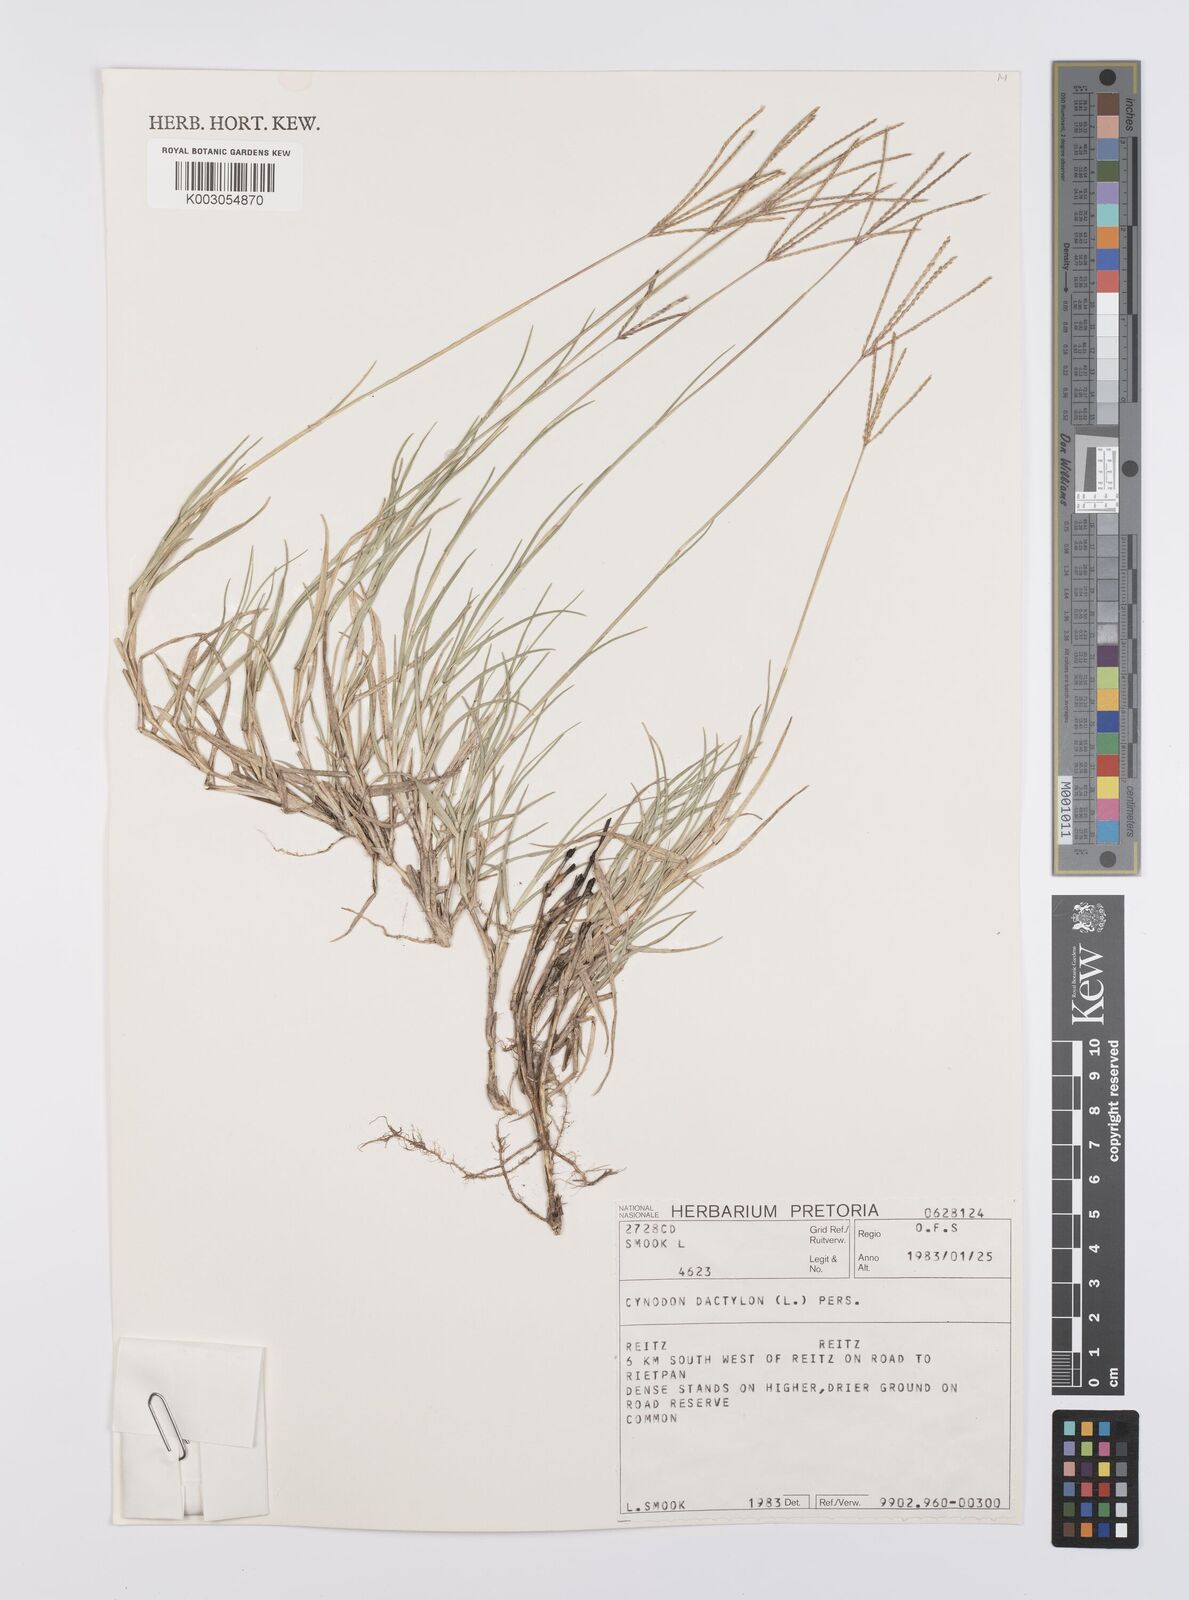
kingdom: Plantae
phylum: Tracheophyta
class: Liliopsida
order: Poales
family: Poaceae
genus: Cynodon
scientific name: Cynodon dactylon
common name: Bermuda grass
